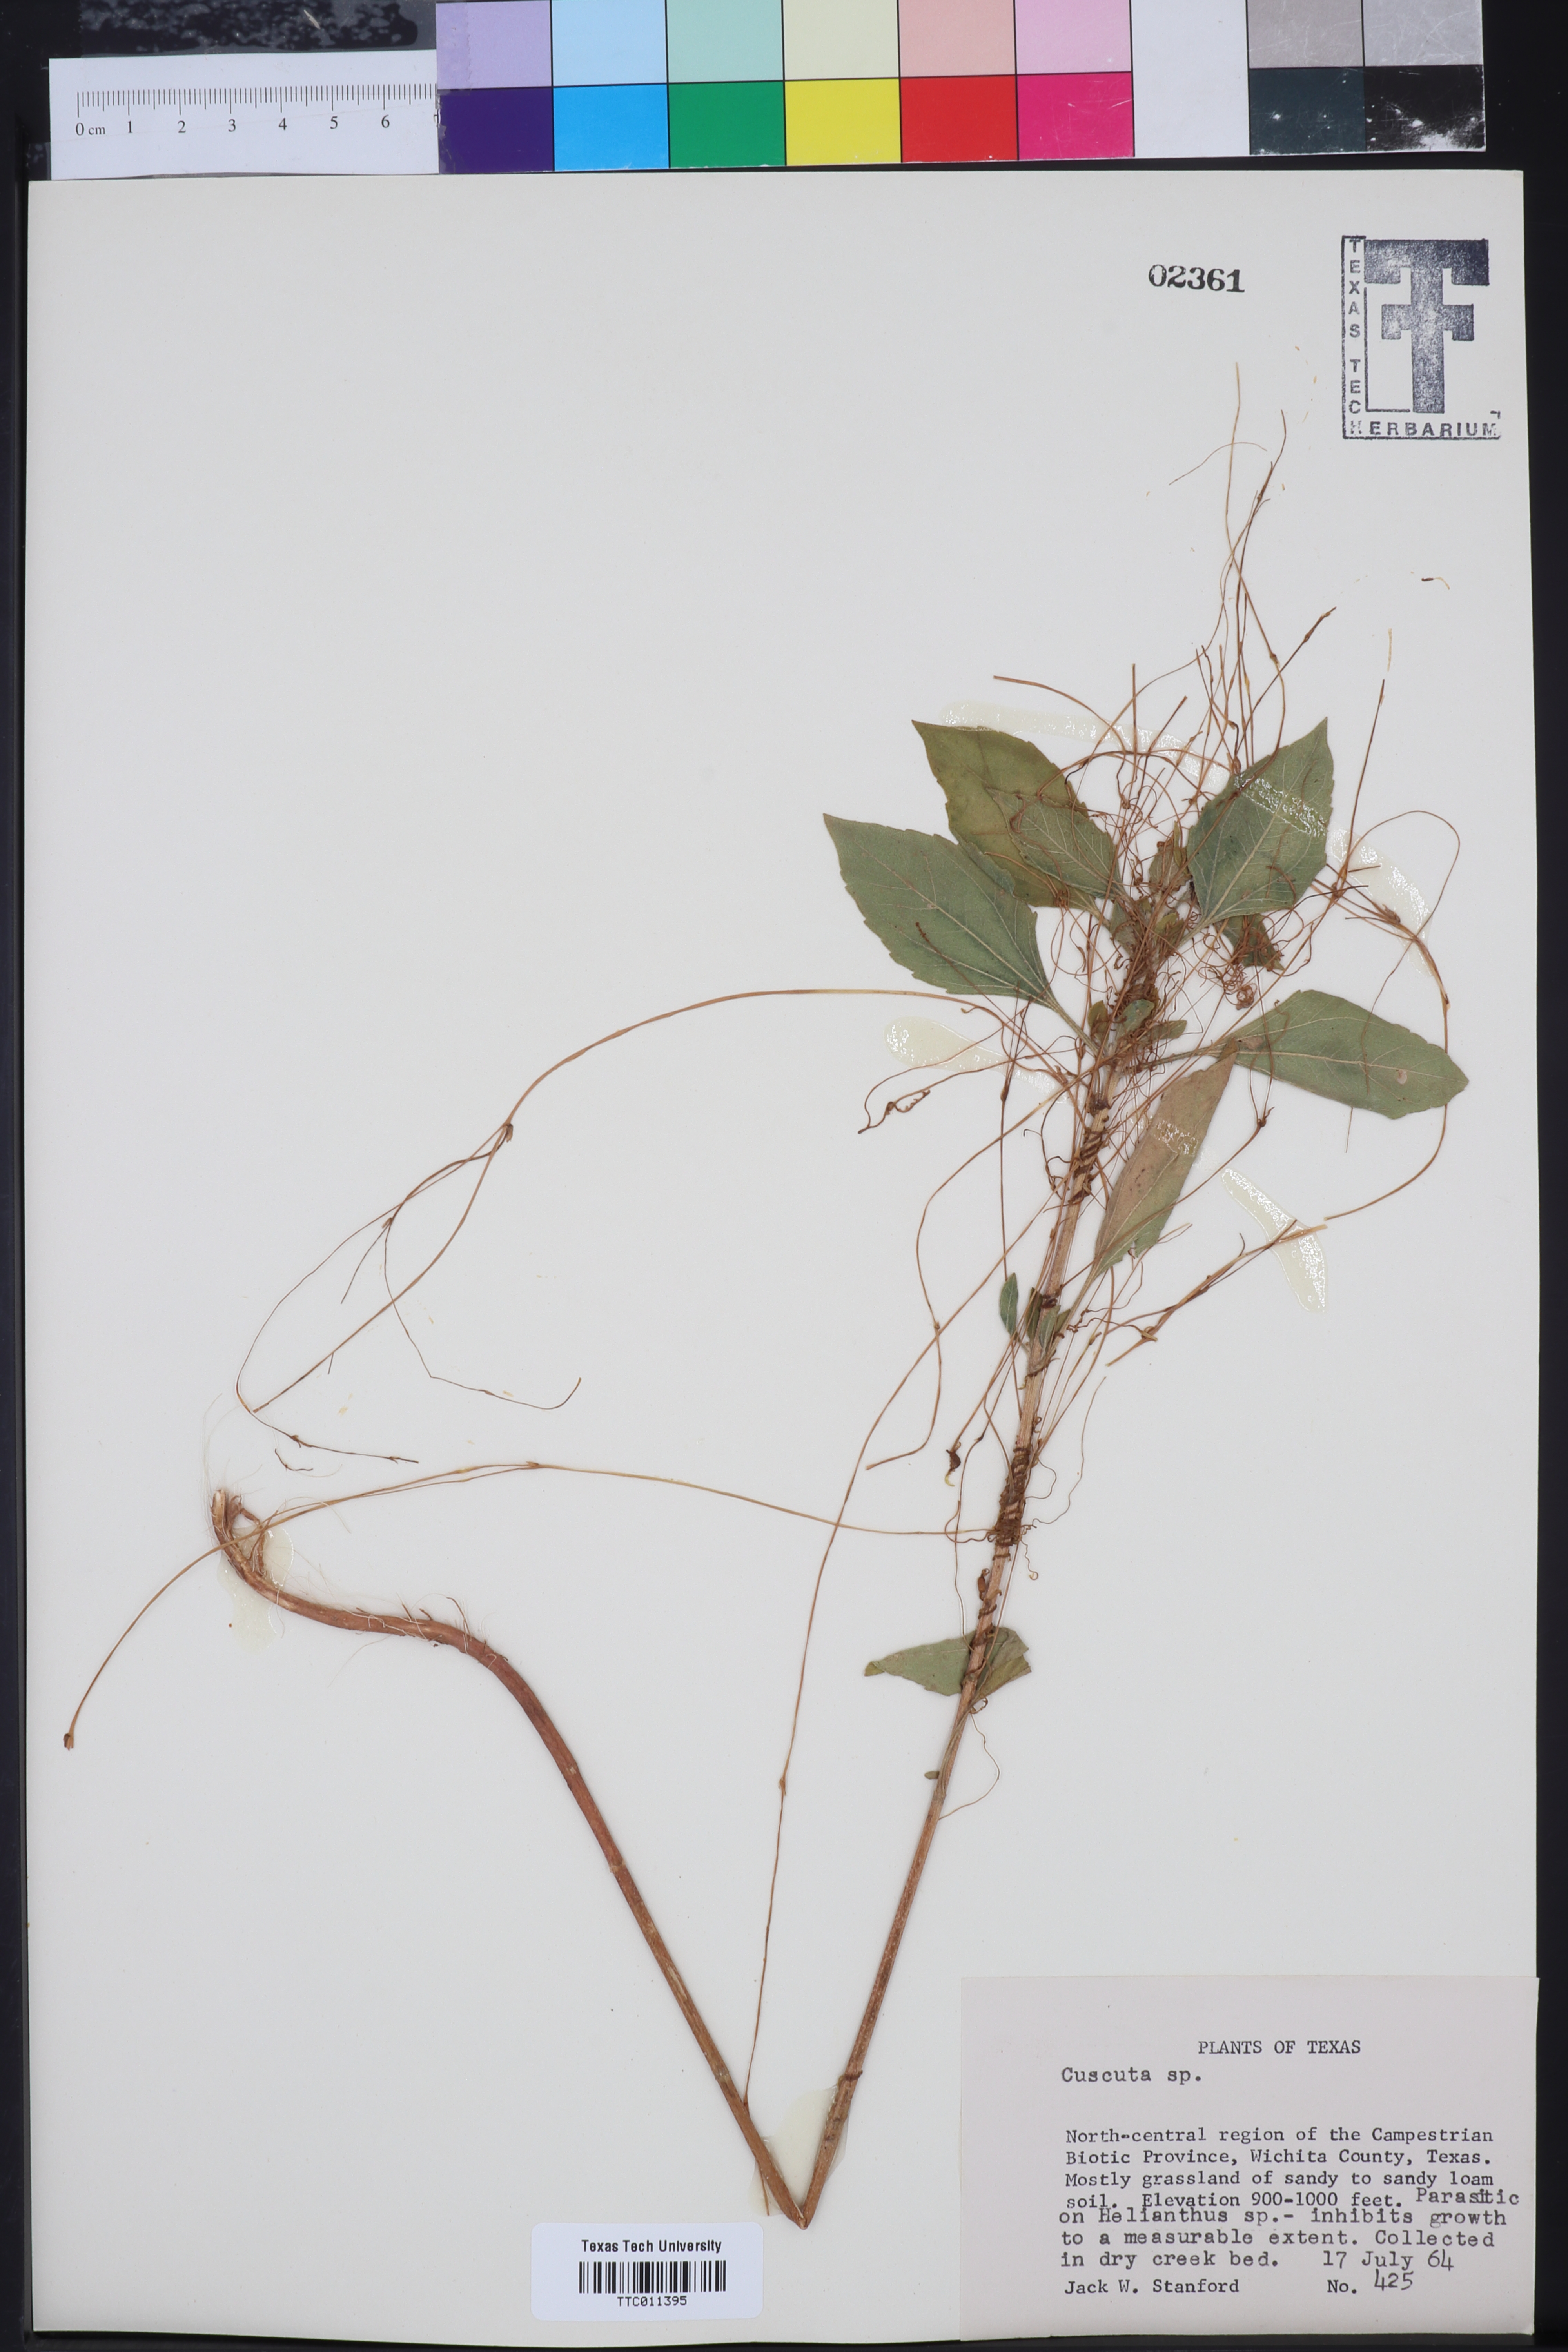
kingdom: Plantae
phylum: Tracheophyta
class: Magnoliopsida
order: Solanales
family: Convolvulaceae
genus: Cuscuta
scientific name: Cuscuta
